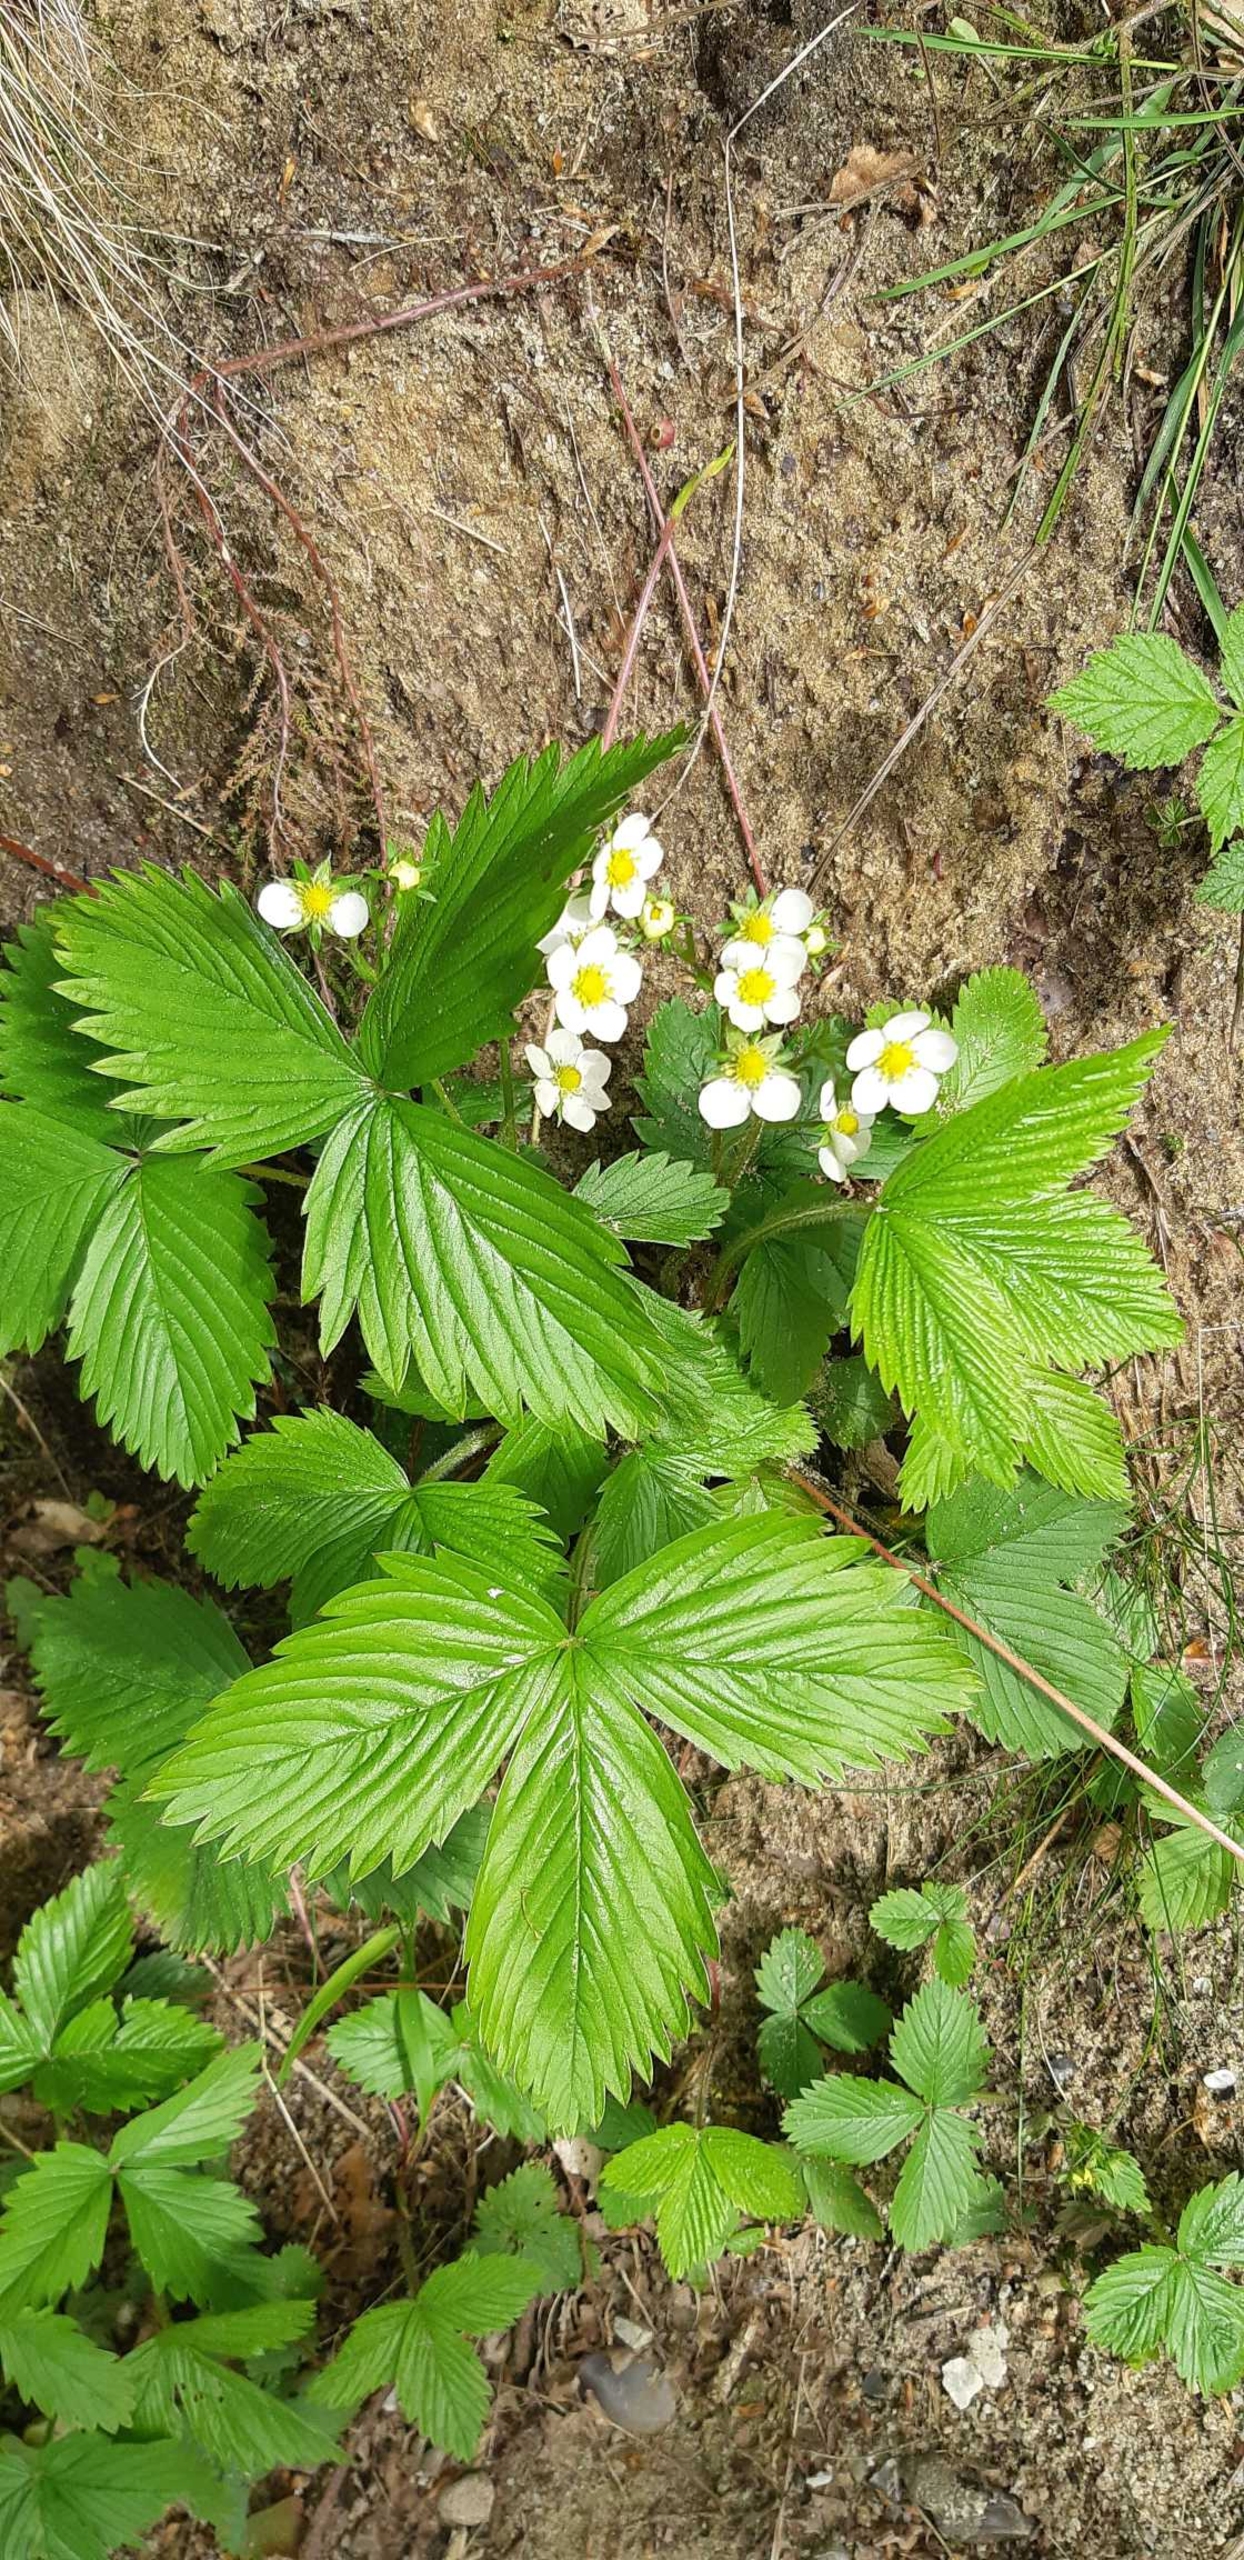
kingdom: Plantae
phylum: Tracheophyta
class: Magnoliopsida
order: Rosales
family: Rosaceae
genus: Fragaria
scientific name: Fragaria vesca
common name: Skov-jordbær
